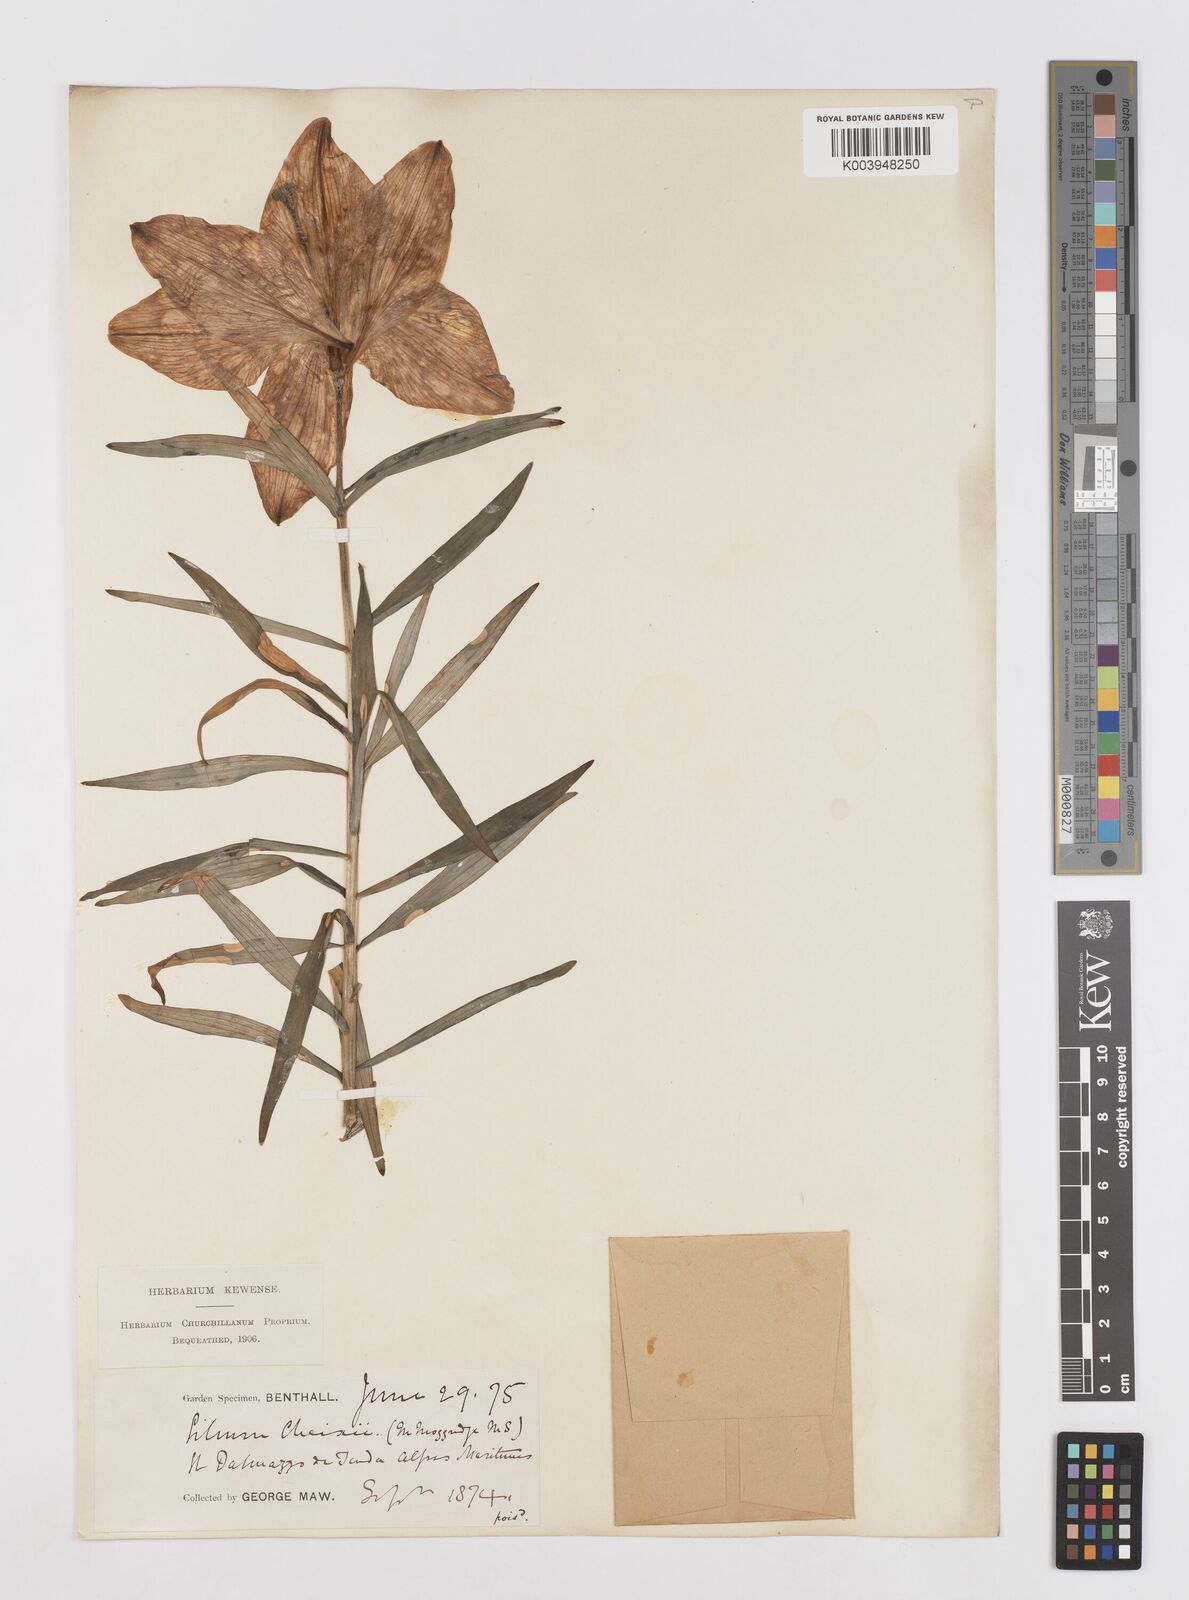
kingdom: Plantae
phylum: Tracheophyta
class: Liliopsida
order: Liliales
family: Liliaceae
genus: Lilium
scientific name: Lilium bulbiferum
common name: Orange lily
